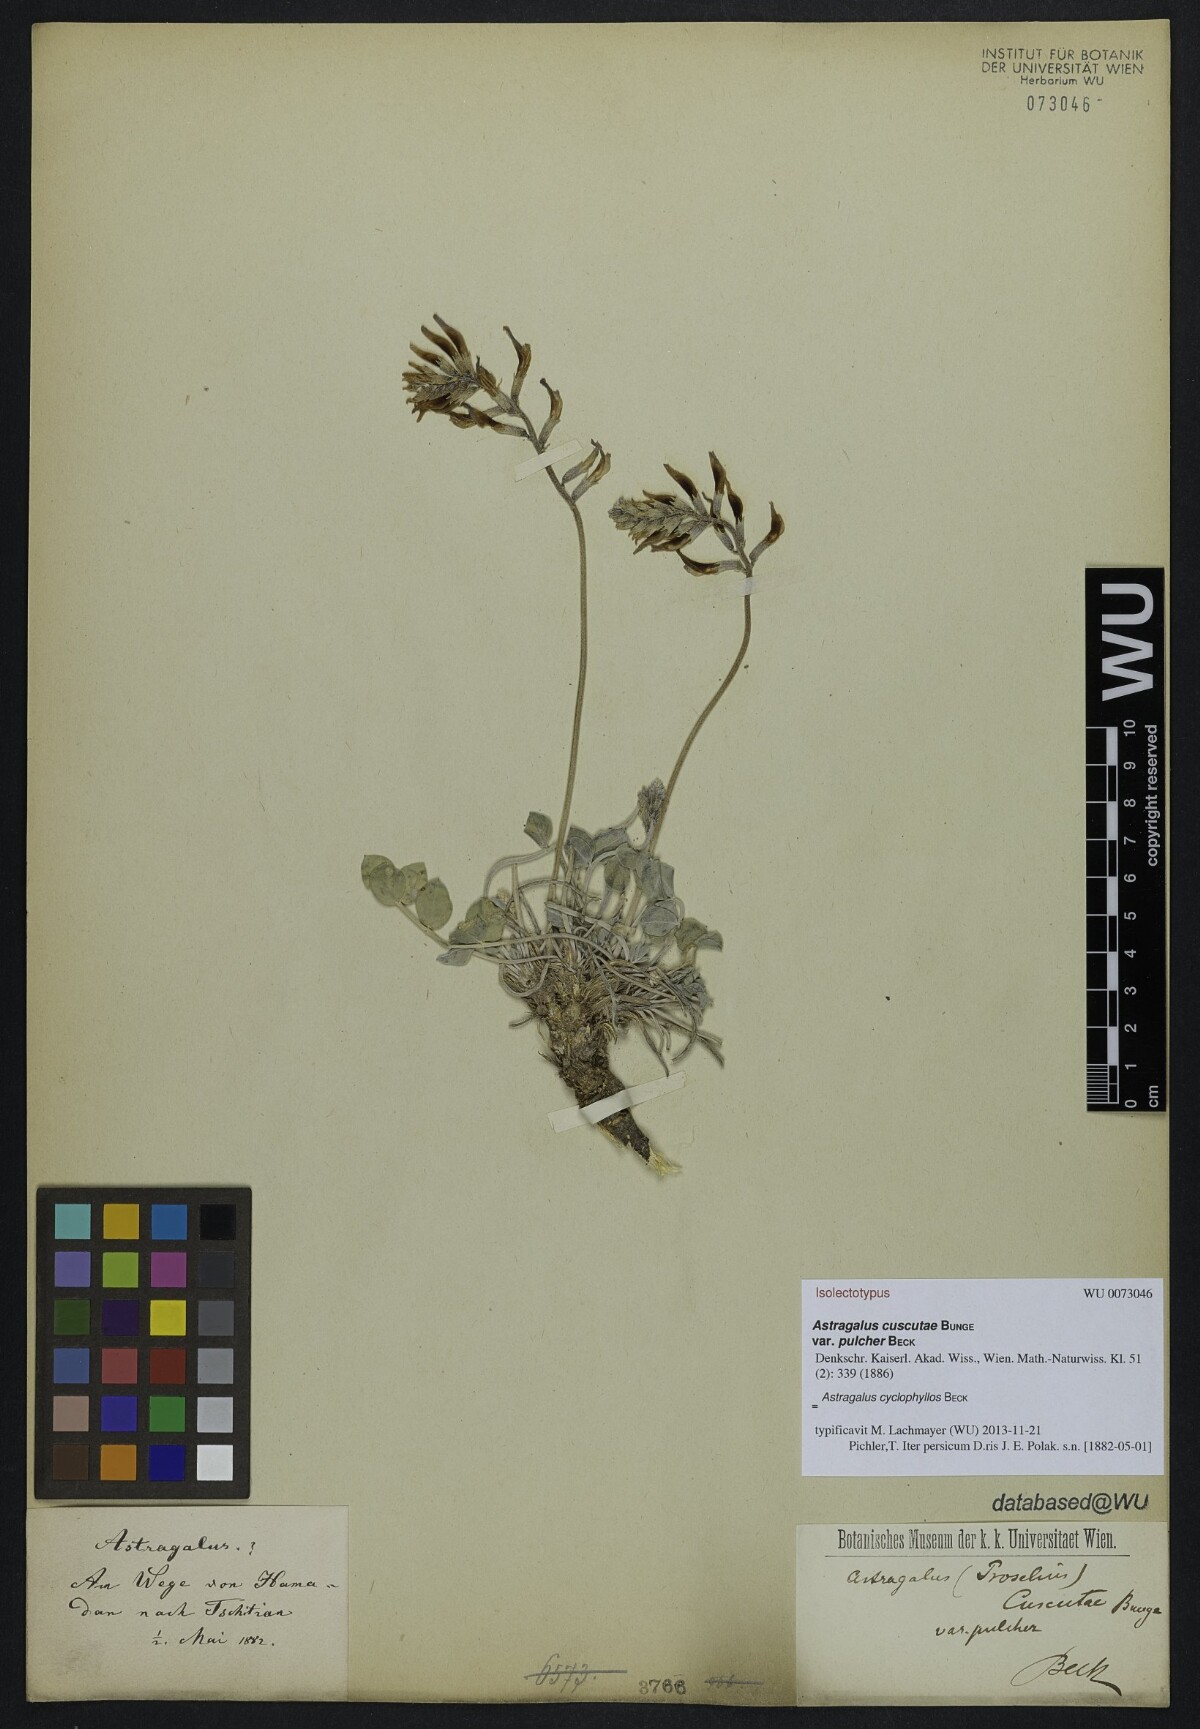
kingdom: Plantae
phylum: Tracheophyta
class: Magnoliopsida
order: Fabales
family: Fabaceae
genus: Astragalus
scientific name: Astragalus cyclophyllos
